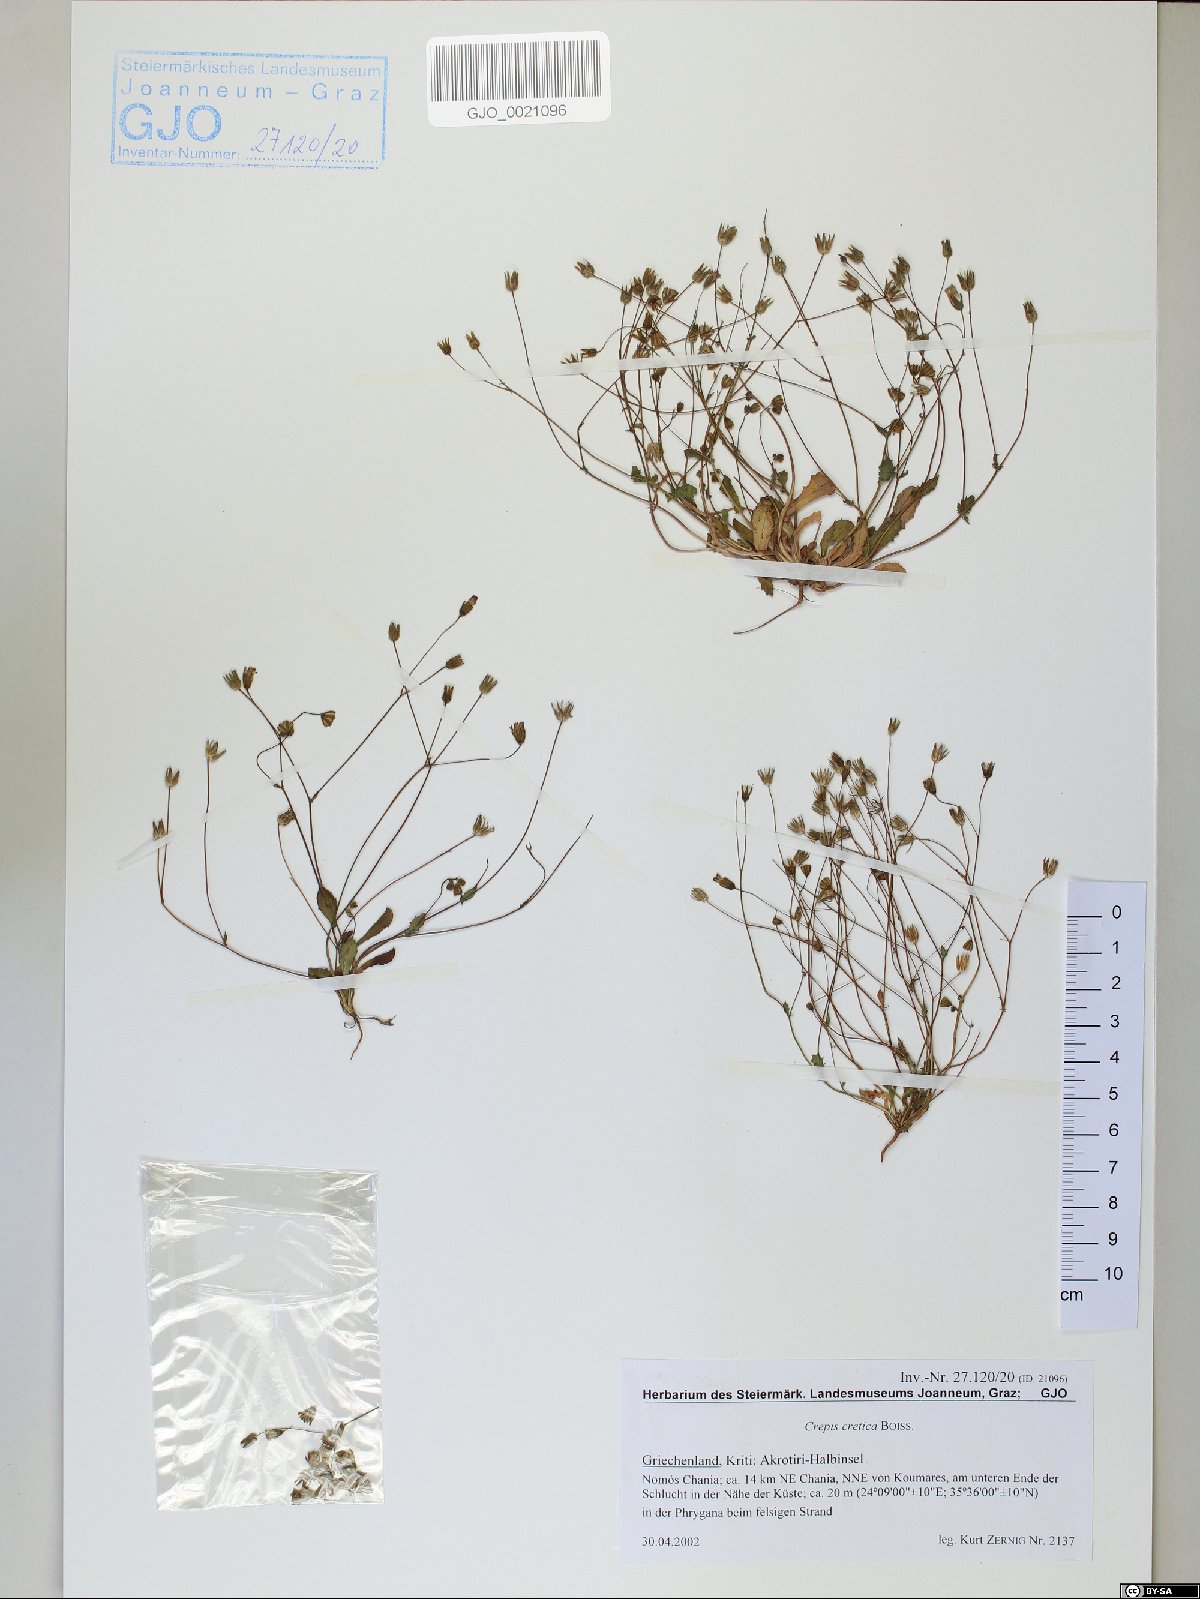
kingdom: Plantae
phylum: Tracheophyta
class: Magnoliopsida
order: Asterales
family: Asteraceae
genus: Crepis
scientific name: Crepis neglecta
